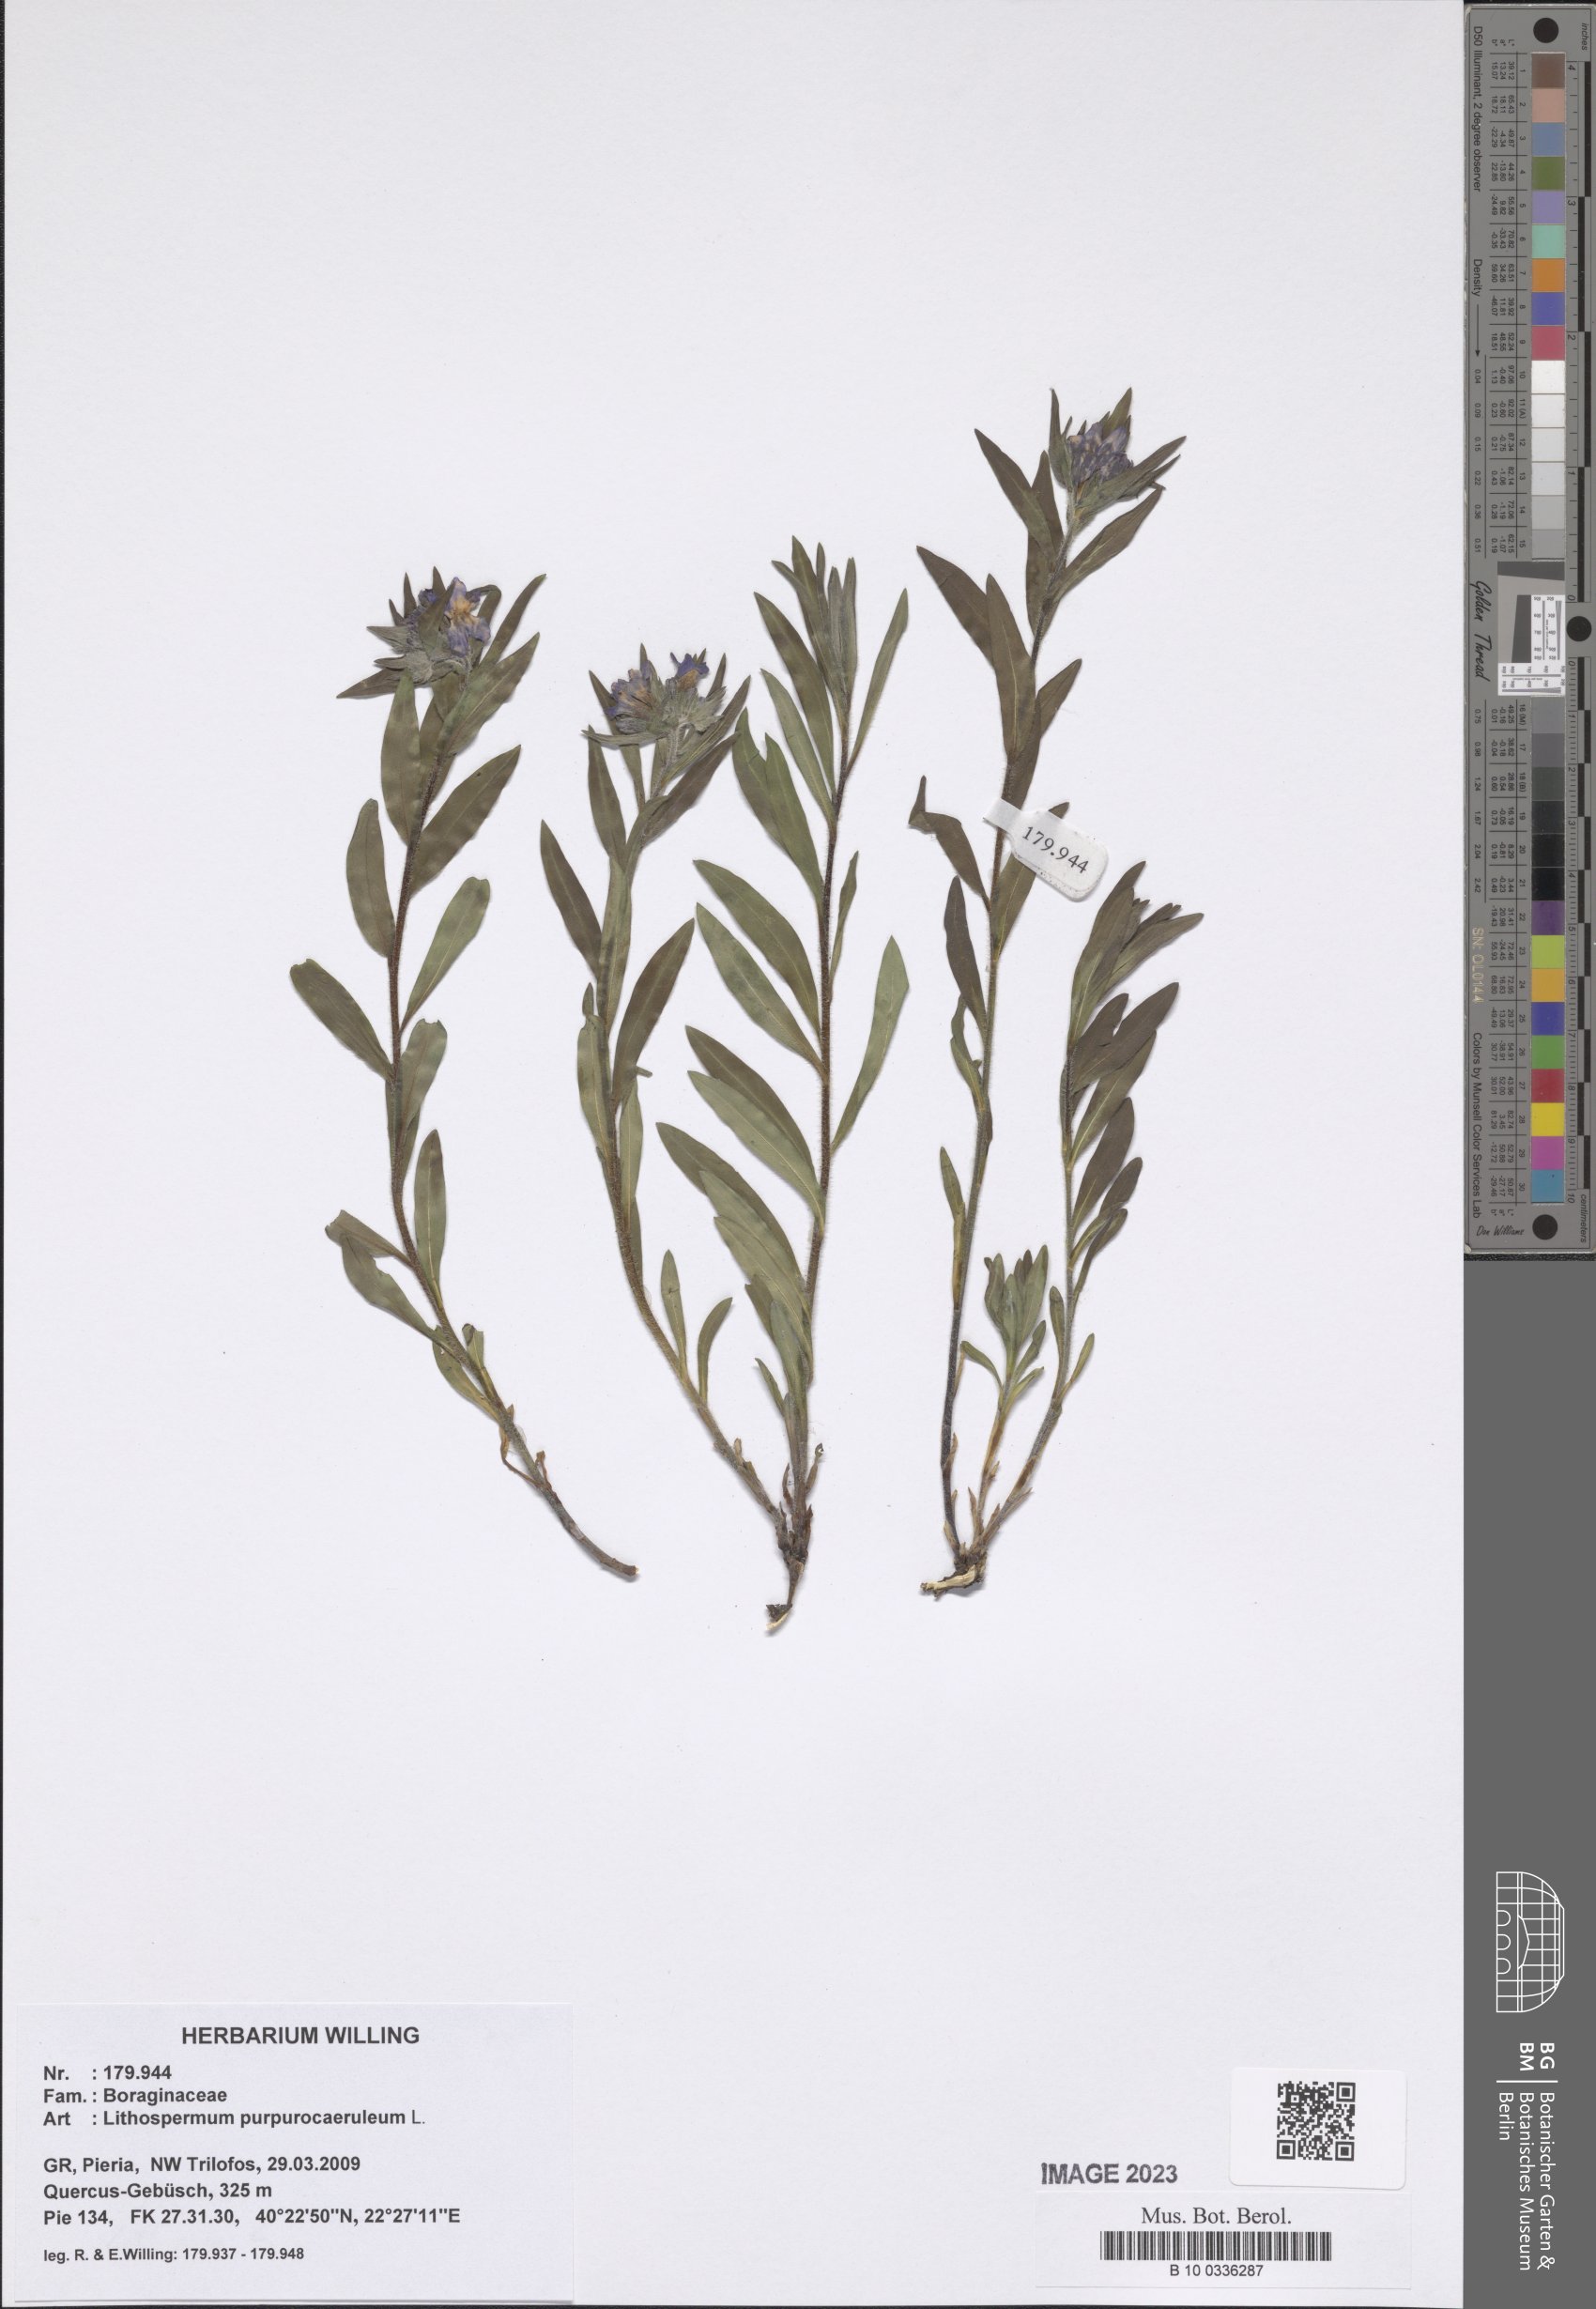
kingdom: Plantae
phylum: Tracheophyta
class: Magnoliopsida
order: Boraginales
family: Boraginaceae
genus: Aegonychon
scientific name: Aegonychon purpurocaeruleum
